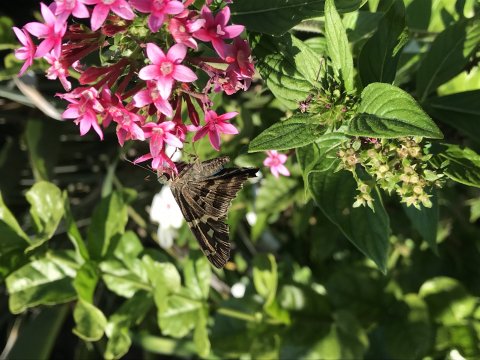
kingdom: Animalia
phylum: Arthropoda
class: Insecta
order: Lepidoptera
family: Hesperiidae
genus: Urbanus
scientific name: Urbanus proteus
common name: Long-tailed Skipper
